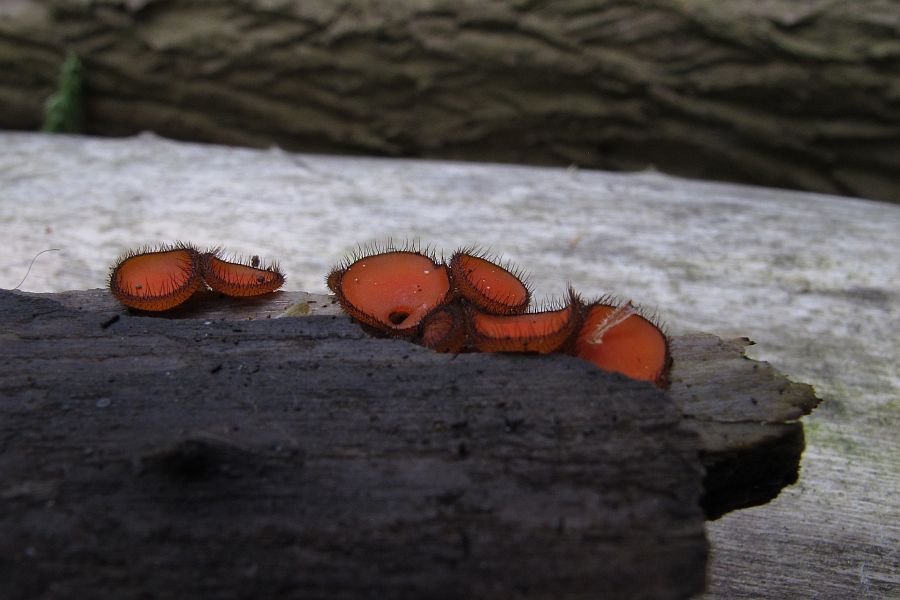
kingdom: Fungi
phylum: Ascomycota
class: Pezizomycetes
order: Pezizales
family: Pyronemataceae
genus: Scutellinia
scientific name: Scutellinia scutellata
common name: frynset skjoldbæger
